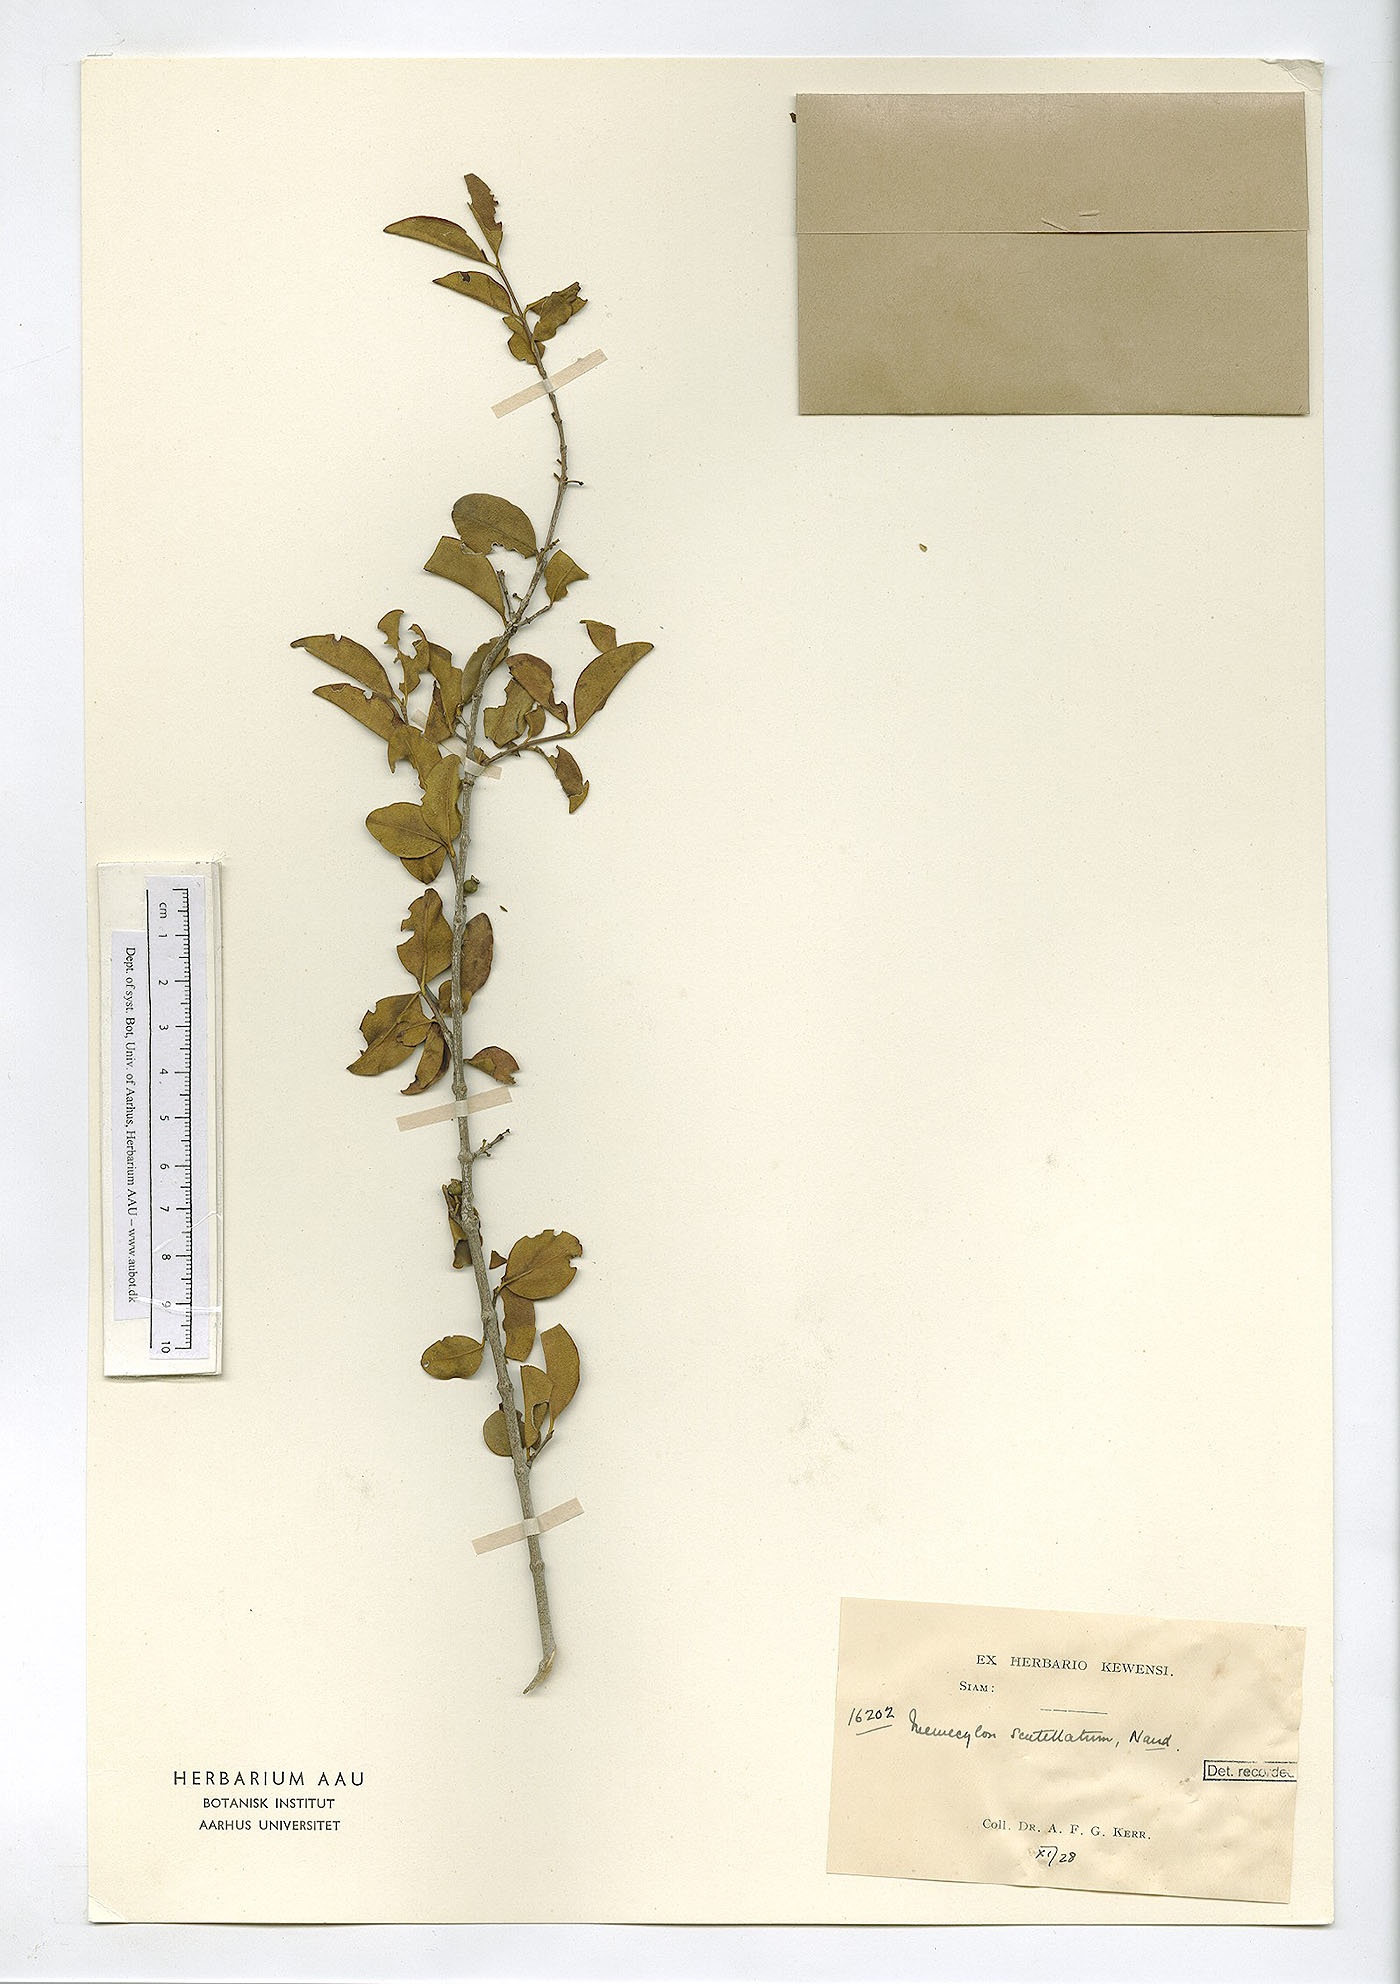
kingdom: Plantae
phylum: Tracheophyta
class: Magnoliopsida
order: Myrtales
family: Melastomataceae
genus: Memecylon
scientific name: Memecylon scutellatum
